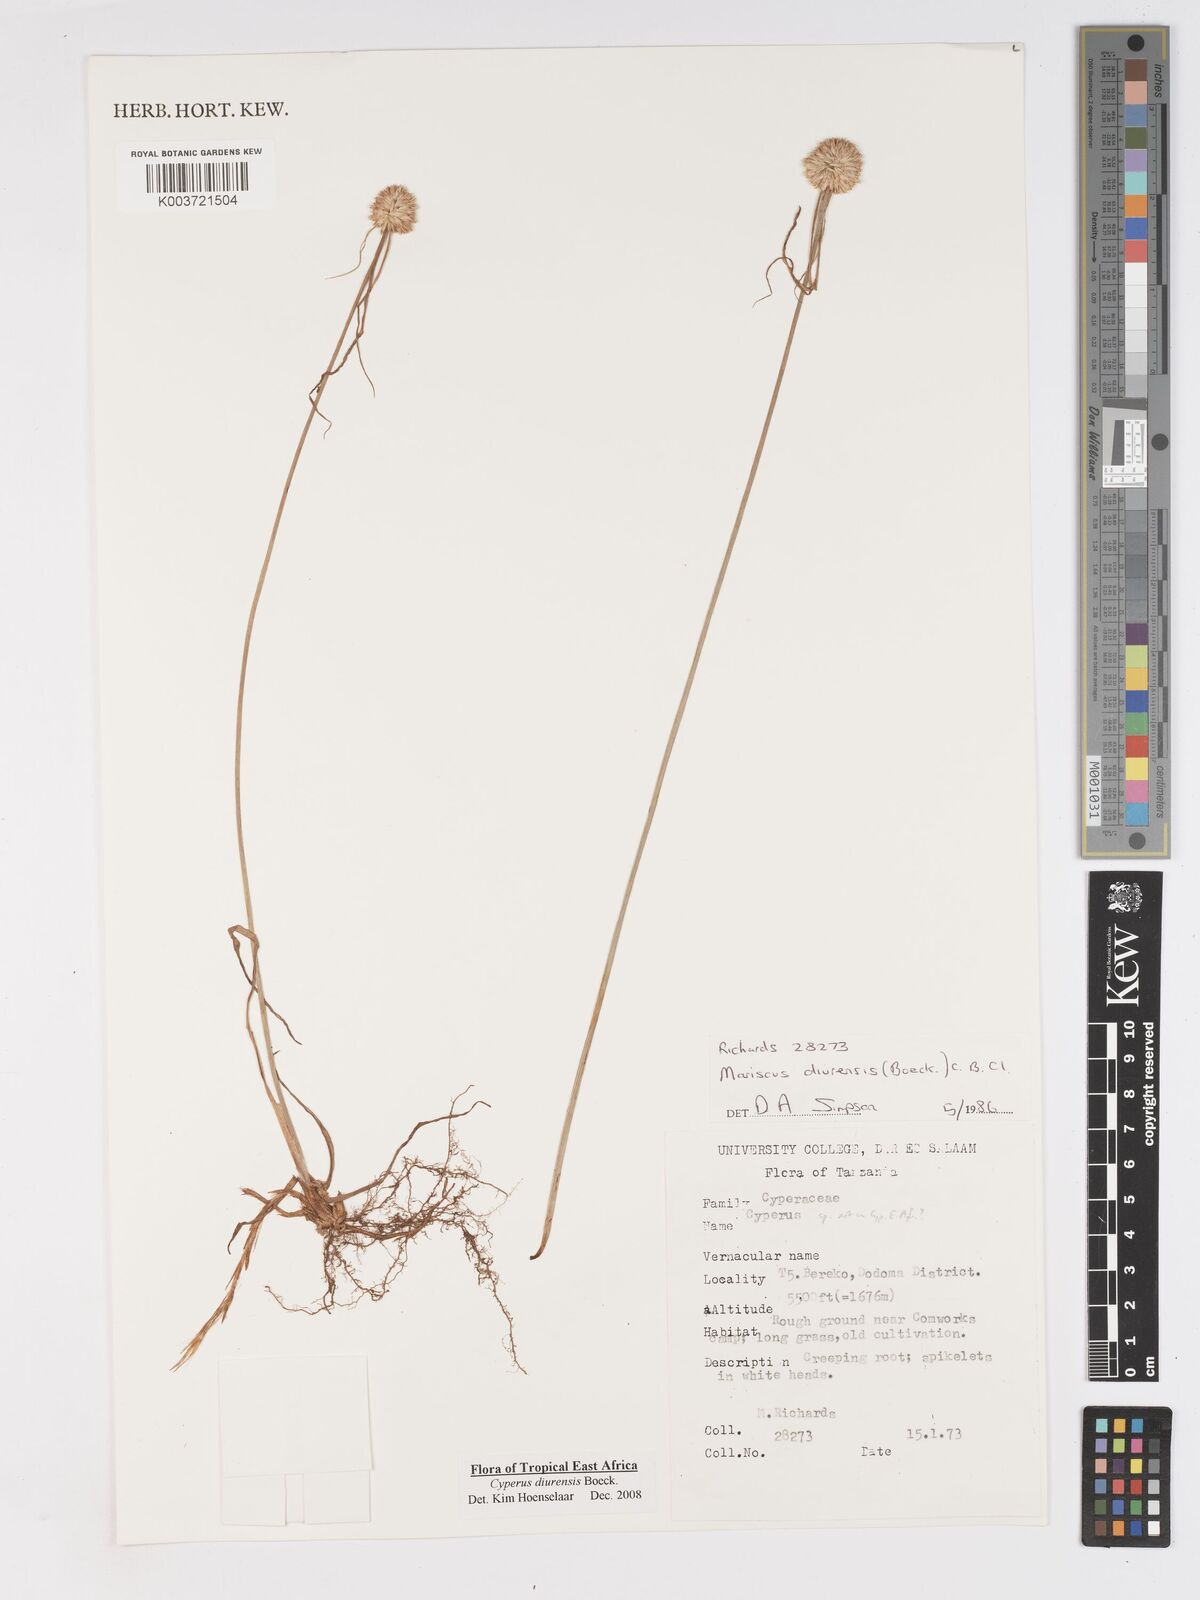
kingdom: Plantae
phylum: Tracheophyta
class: Liliopsida
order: Poales
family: Cyperaceae
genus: Cyperus
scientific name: Cyperus diurensis
